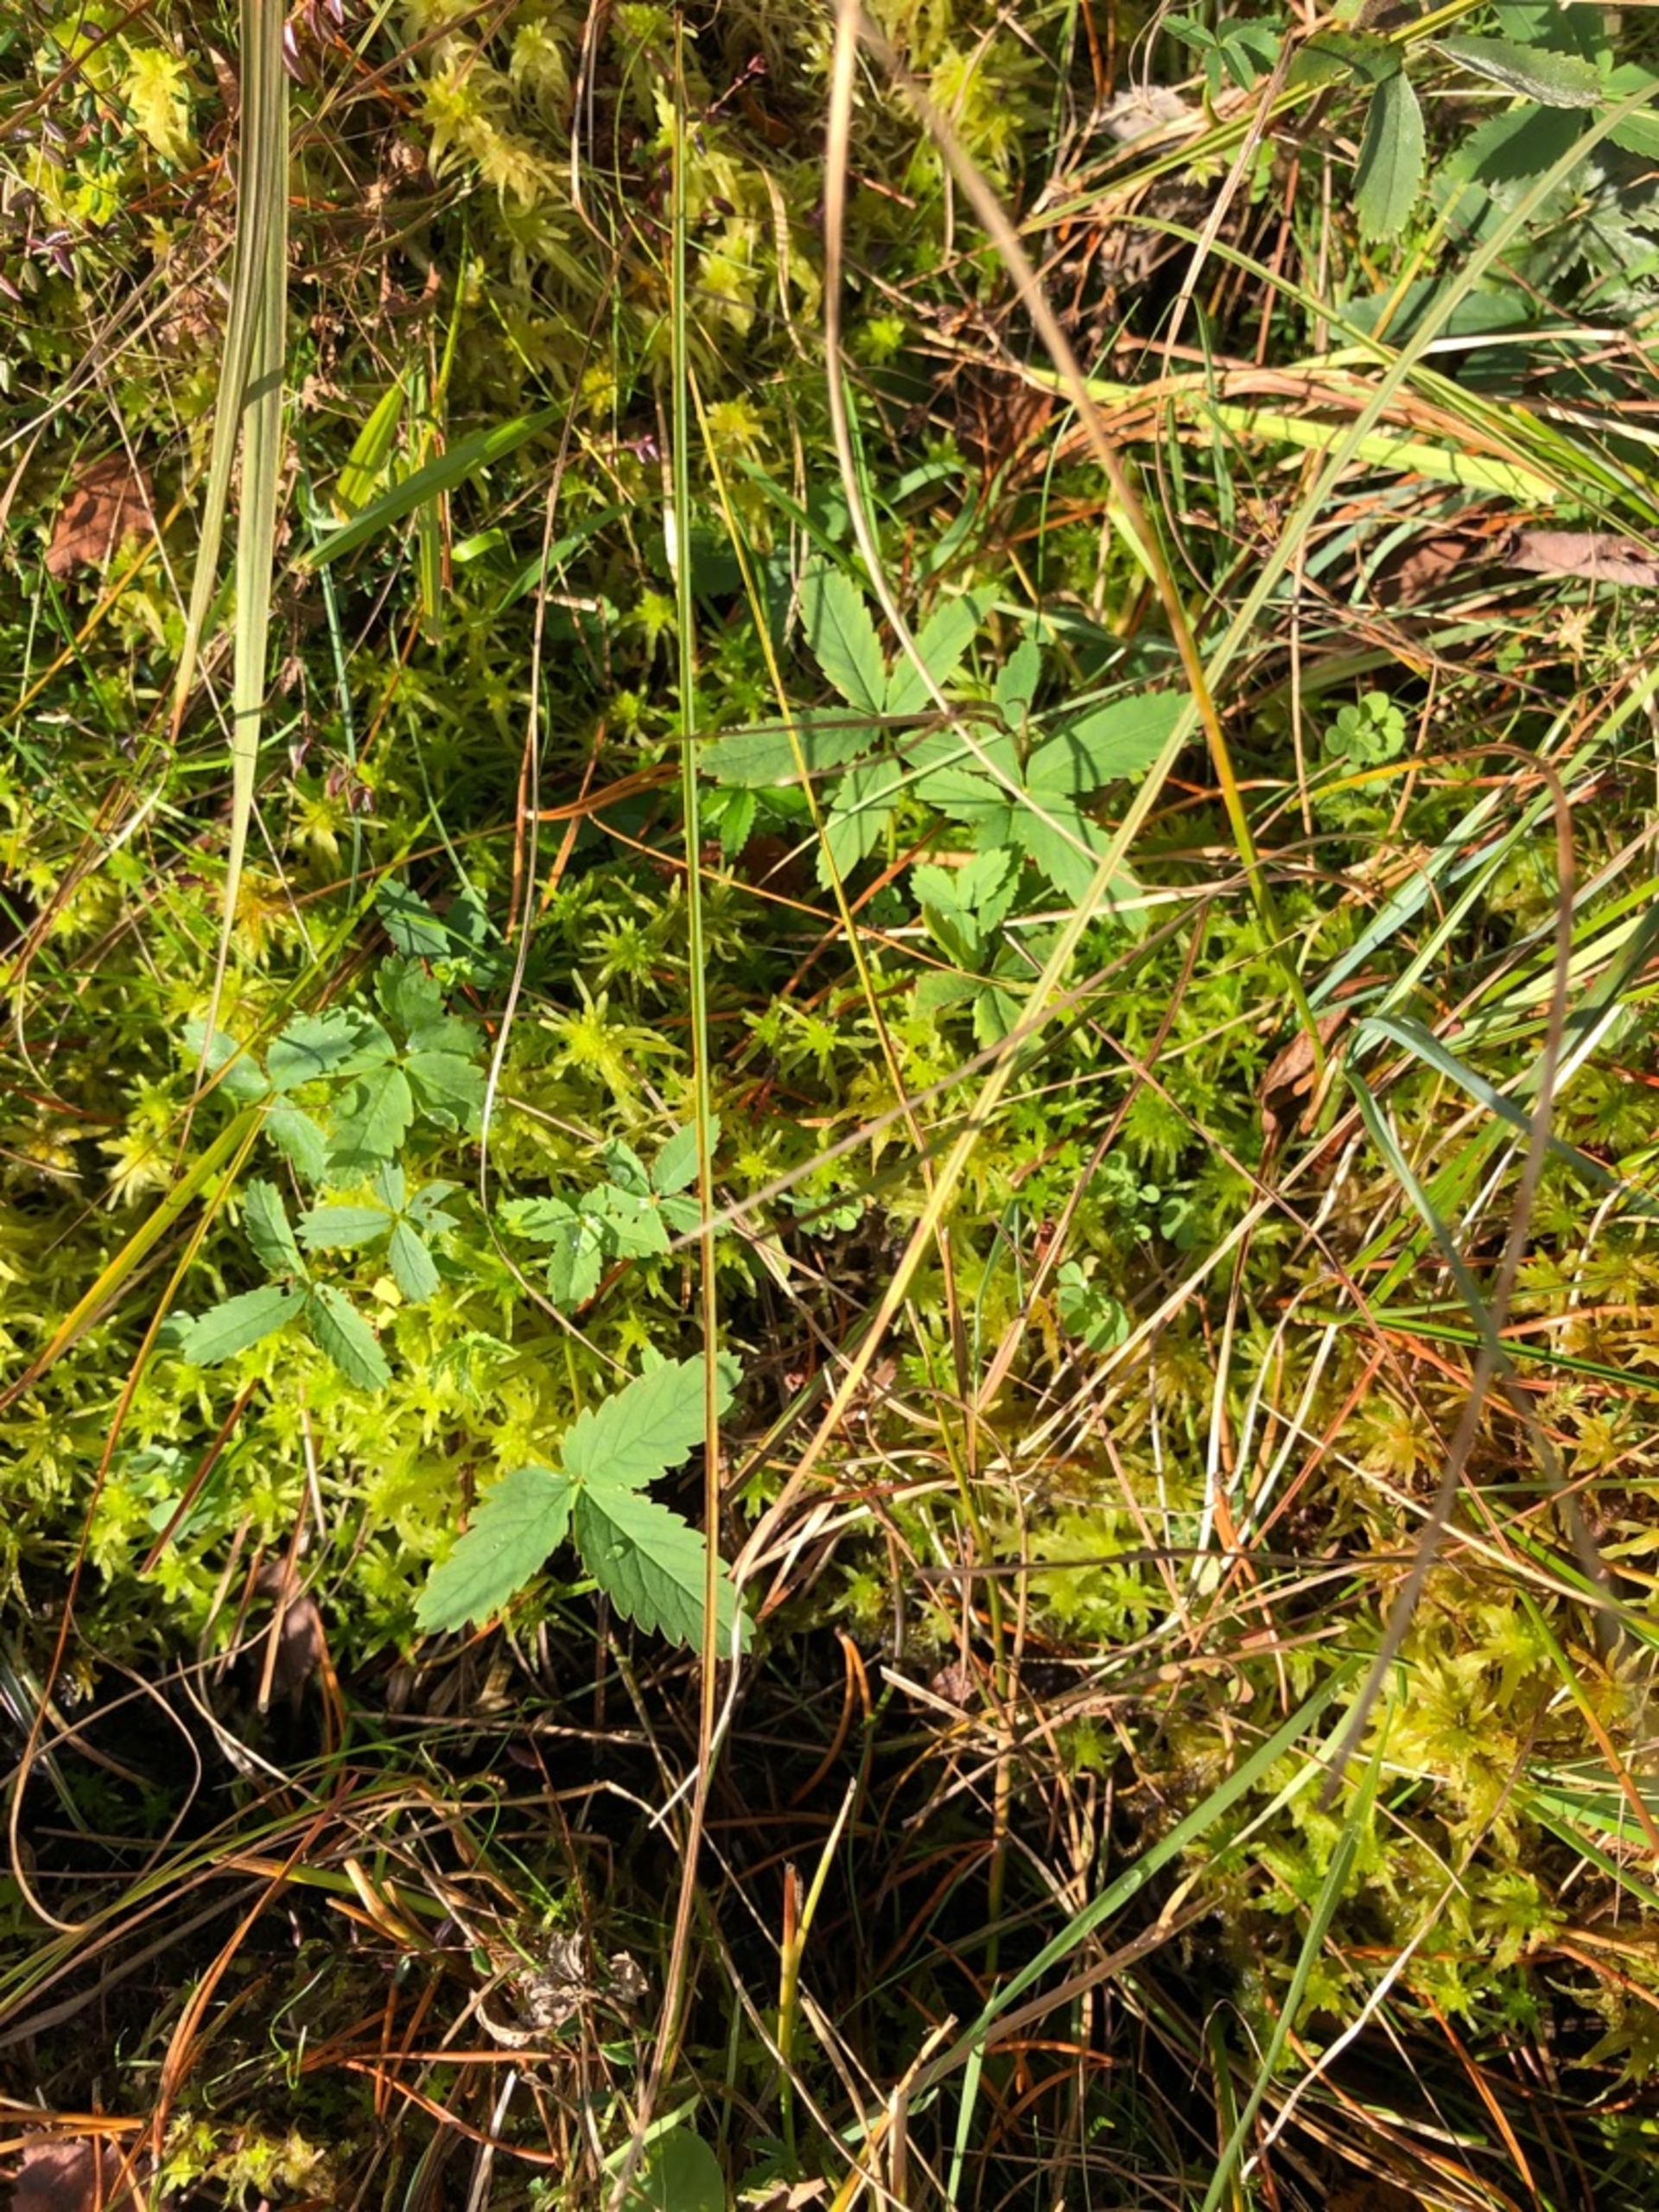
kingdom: Plantae
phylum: Tracheophyta
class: Magnoliopsida
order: Rosales
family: Rosaceae
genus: Comarum
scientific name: Comarum palustre
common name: Kragefod
